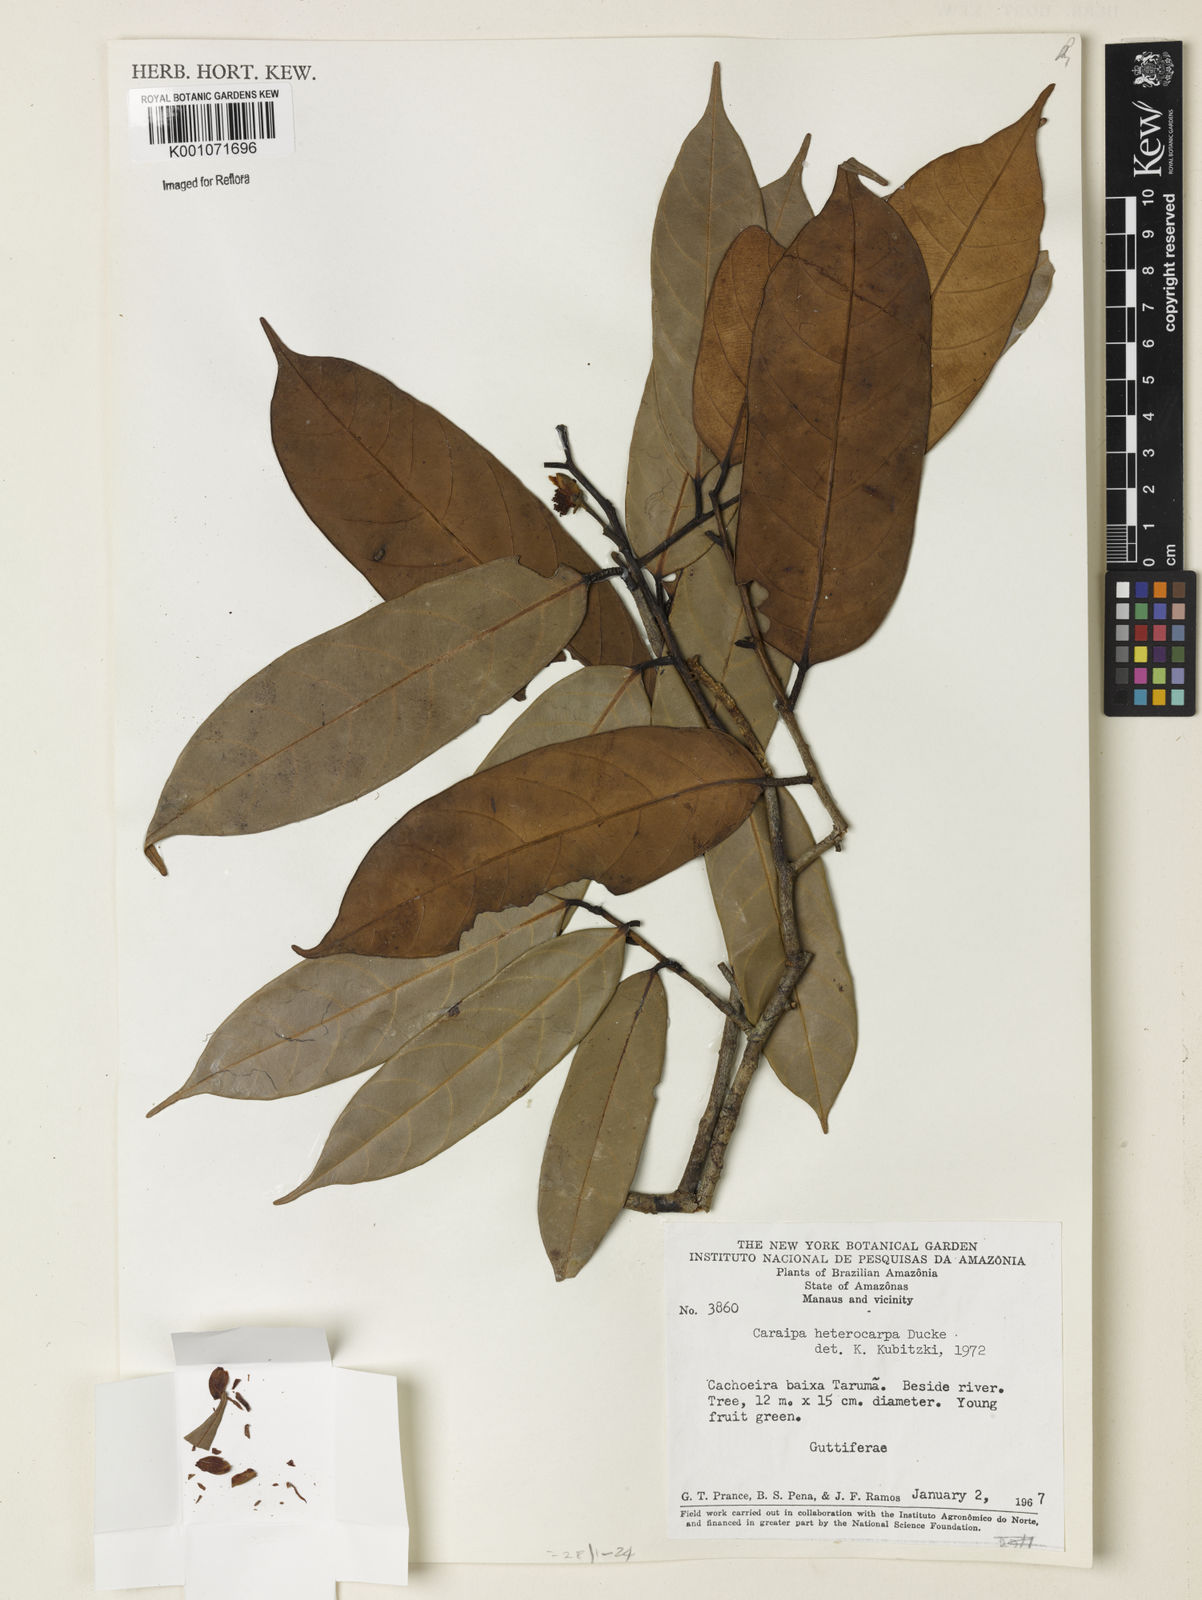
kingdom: Plantae
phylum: Tracheophyta
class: Magnoliopsida
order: Malpighiales
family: Calophyllaceae
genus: Caraipa
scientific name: Caraipa heterocarpa
